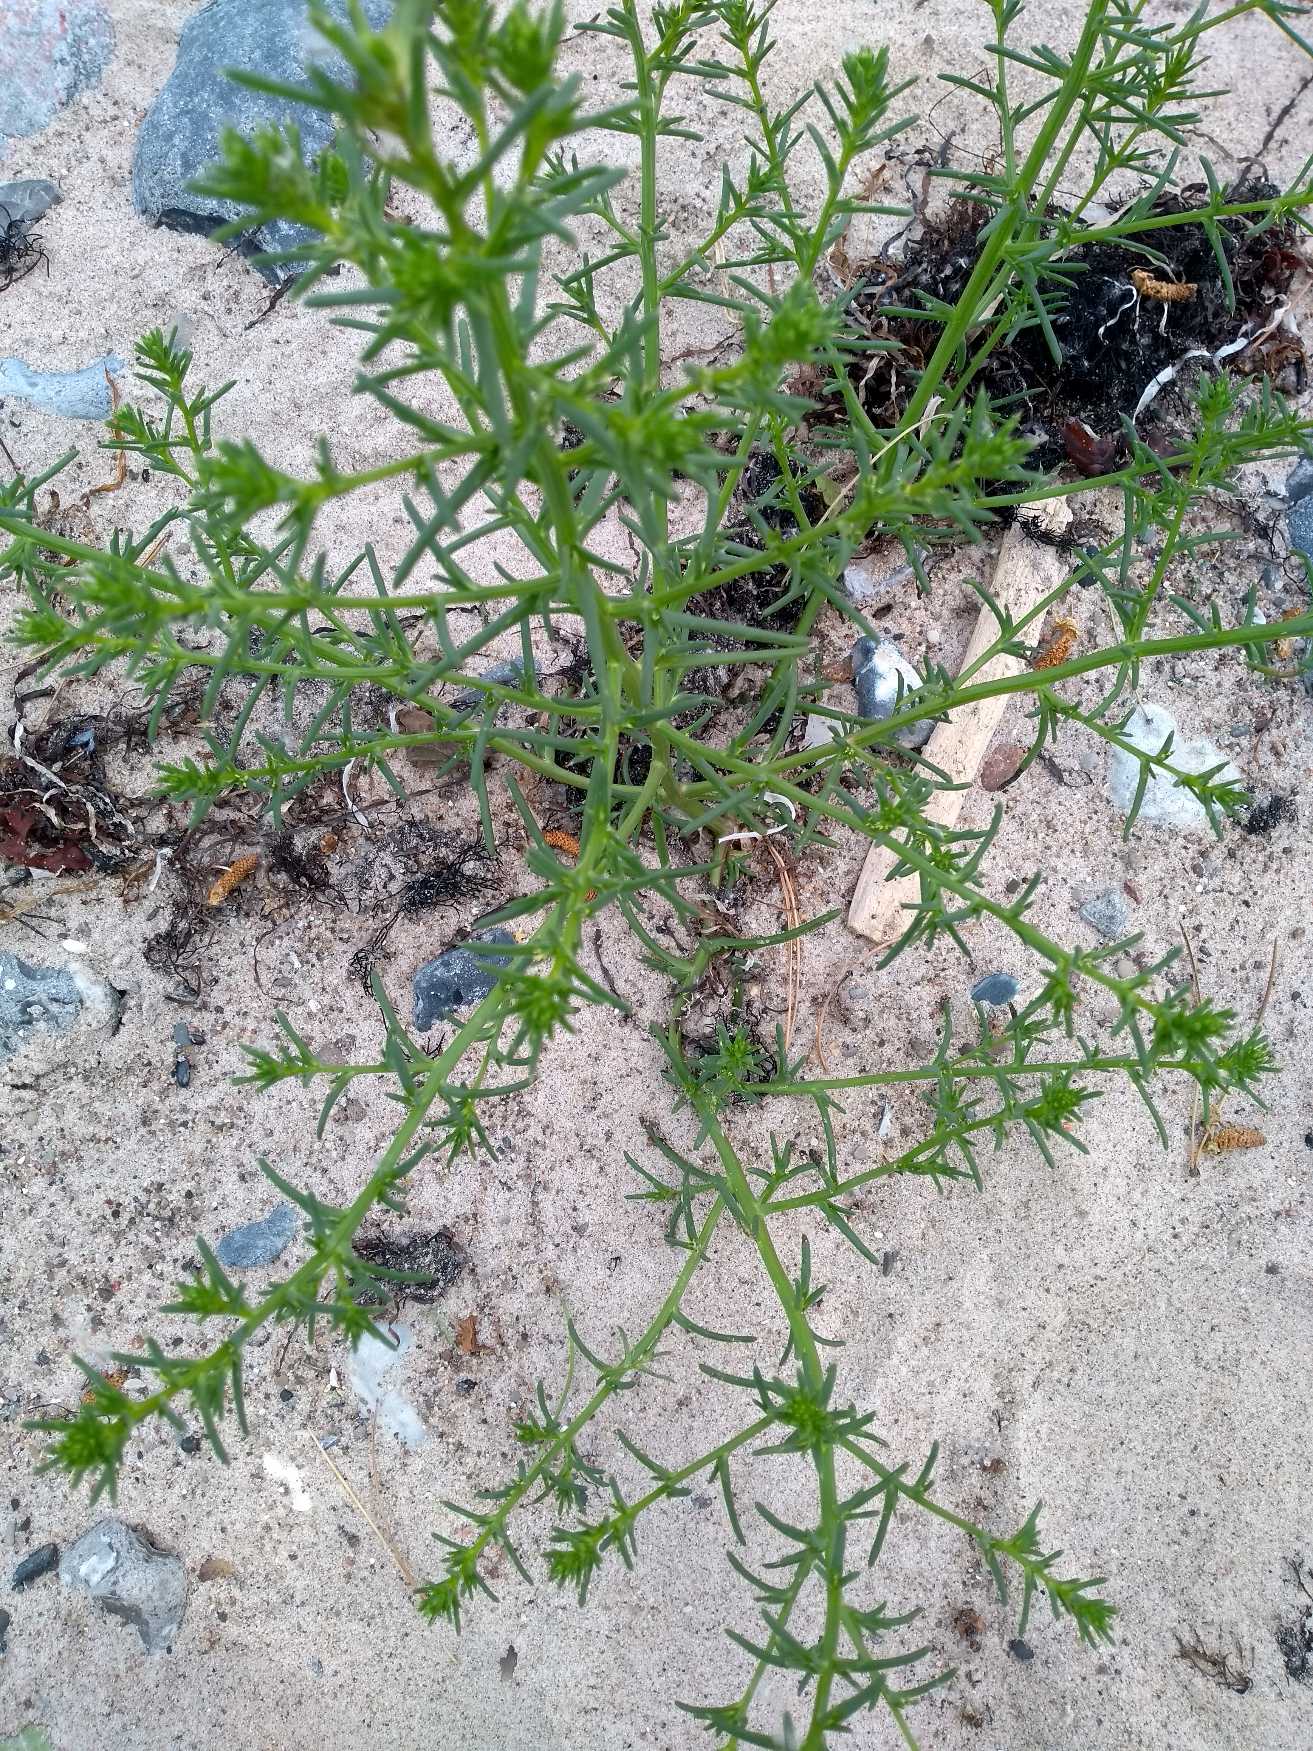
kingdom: Plantae
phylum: Tracheophyta
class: Magnoliopsida
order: Caryophyllales
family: Amaranthaceae
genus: Salsola
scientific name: Salsola kali
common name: Sodaurt
